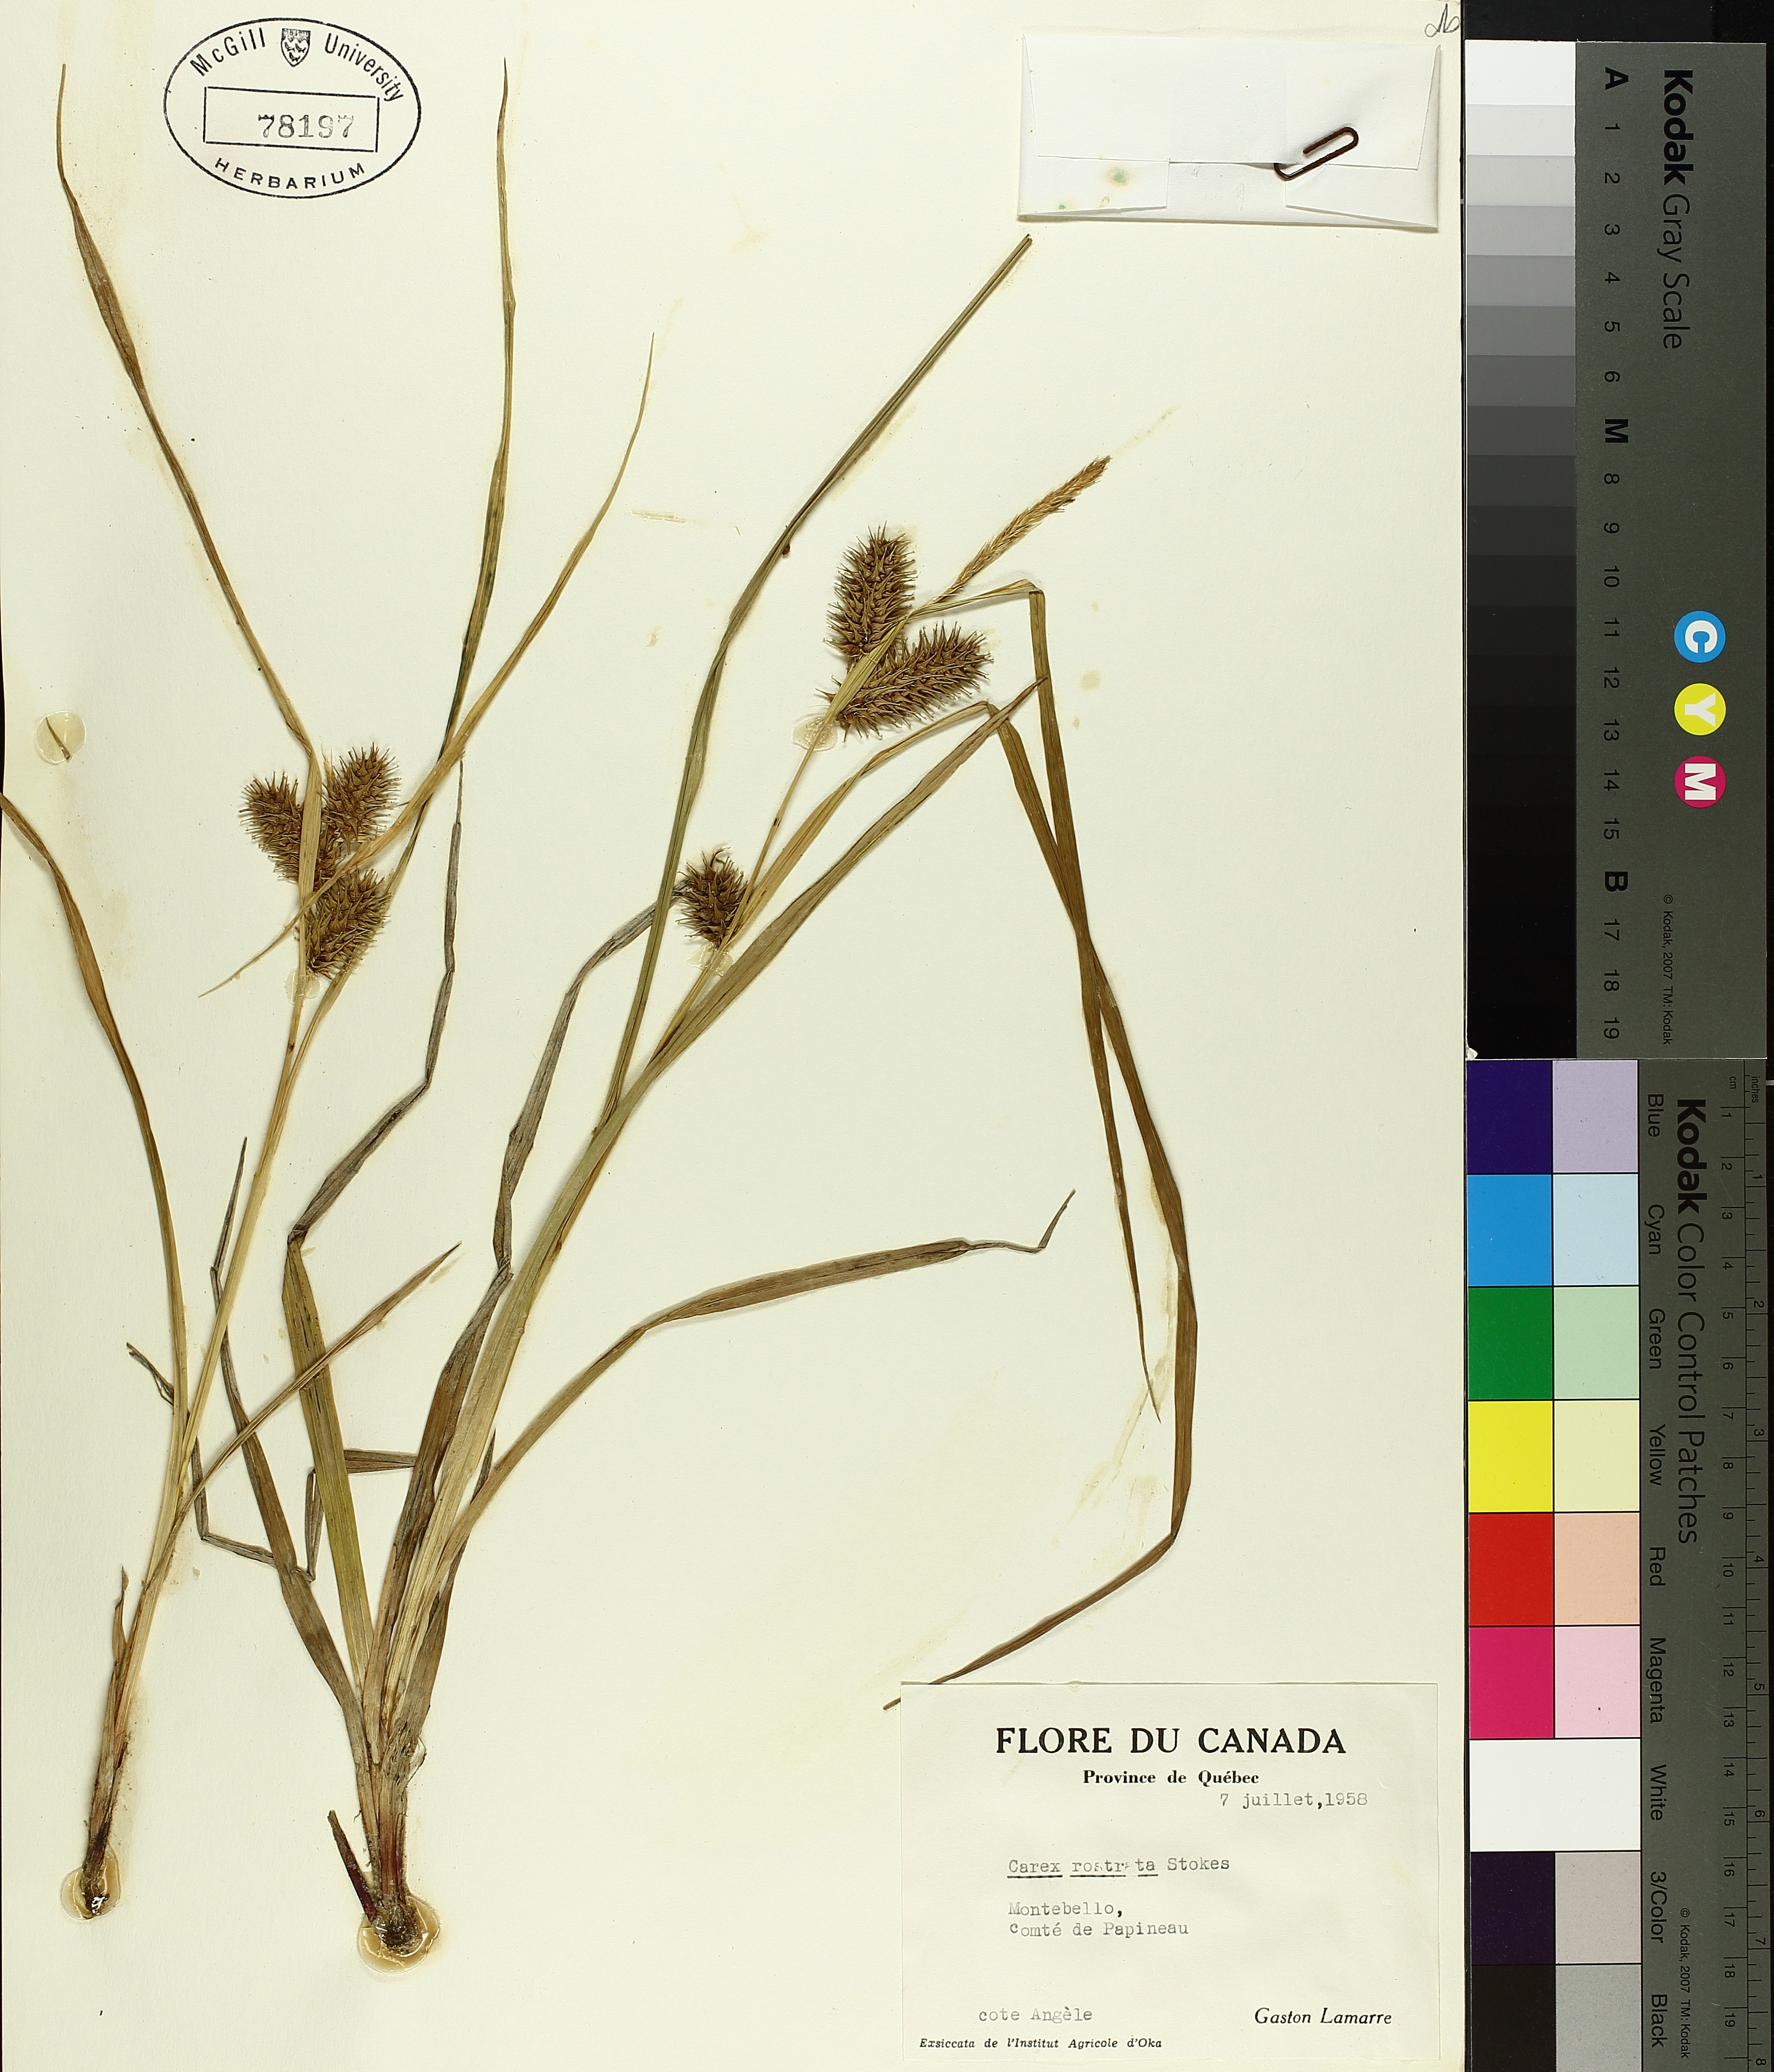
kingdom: Plantae
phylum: Tracheophyta
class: Liliopsida
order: Poales
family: Cyperaceae
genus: Carex
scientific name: Carex rostrata
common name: Bottle sedge
